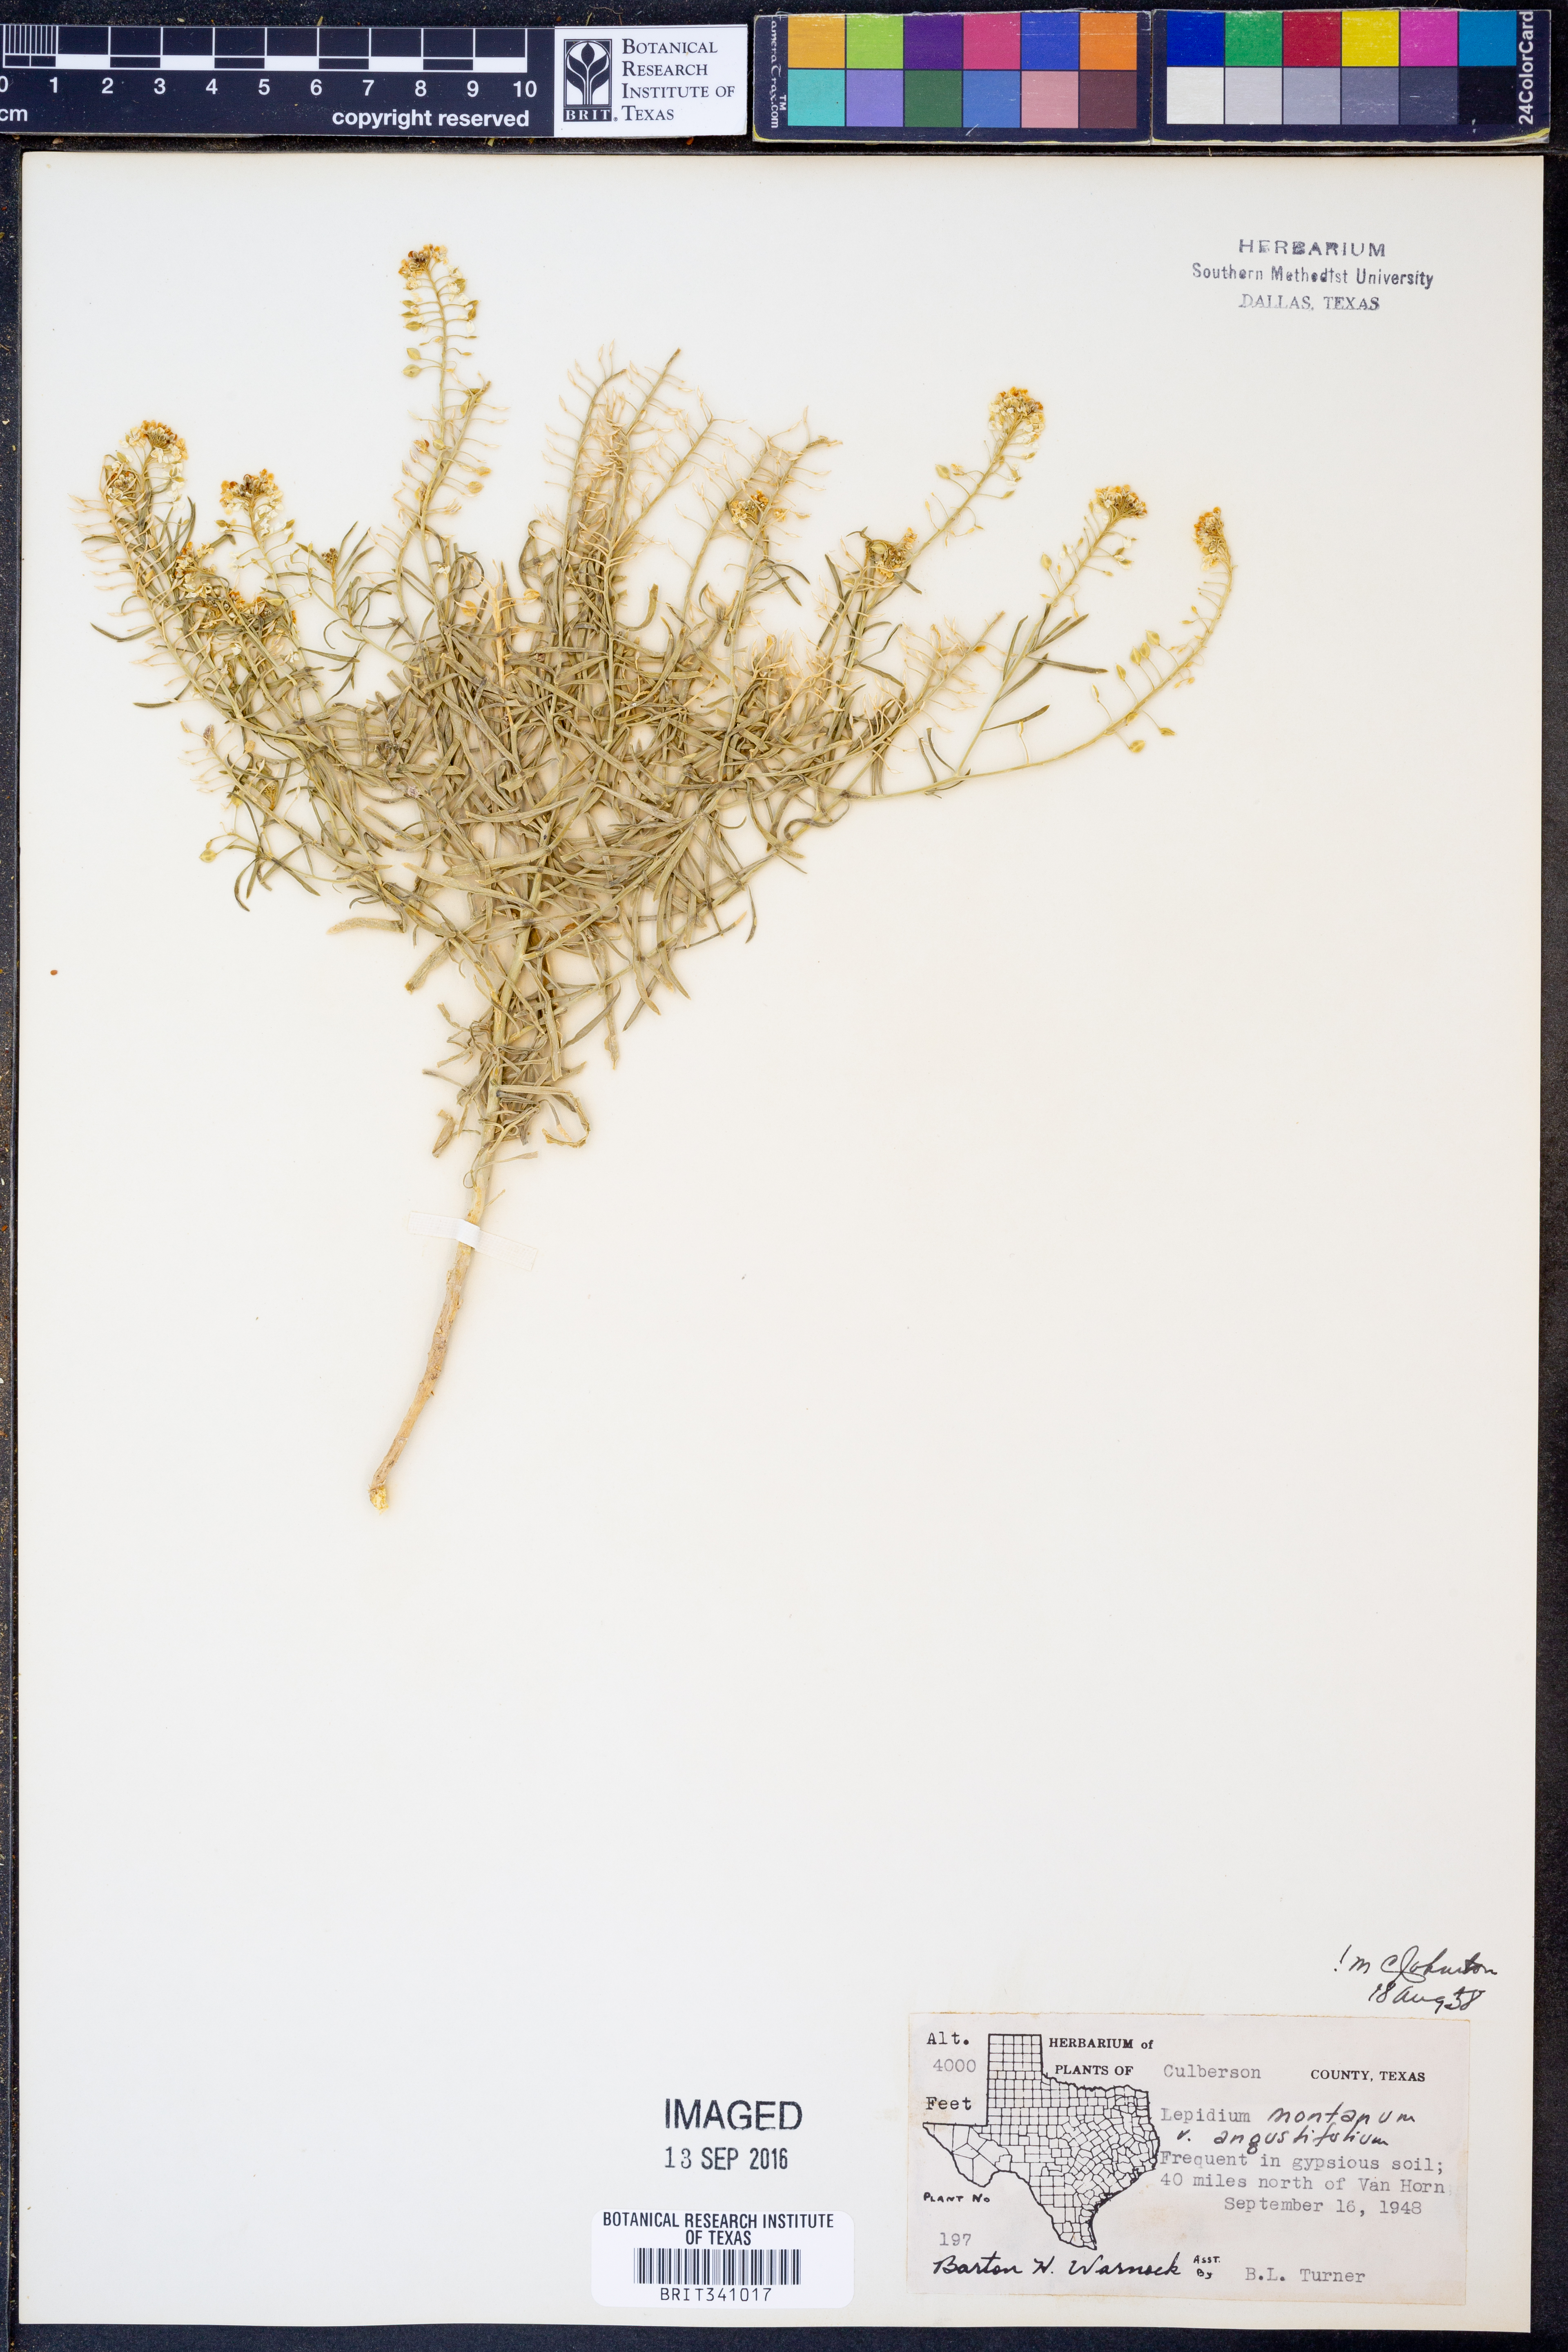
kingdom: Plantae
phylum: Tracheophyta
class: Magnoliopsida
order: Brassicales
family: Brassicaceae
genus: Lepidium
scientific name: Lepidium alyssoides
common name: Mesa pepperweed
